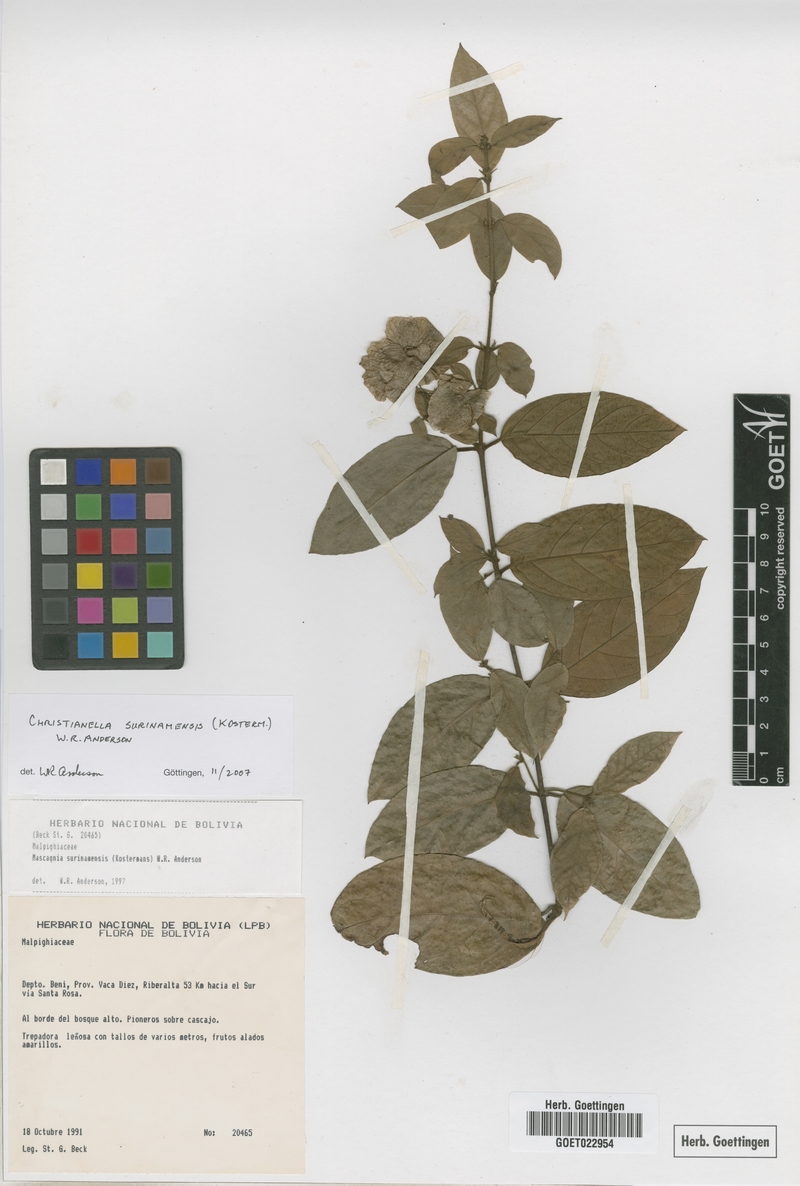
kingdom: Plantae
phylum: Tracheophyta
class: Magnoliopsida
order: Malpighiales
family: Malpighiaceae
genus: Christianella
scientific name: Christianella surinamensis
